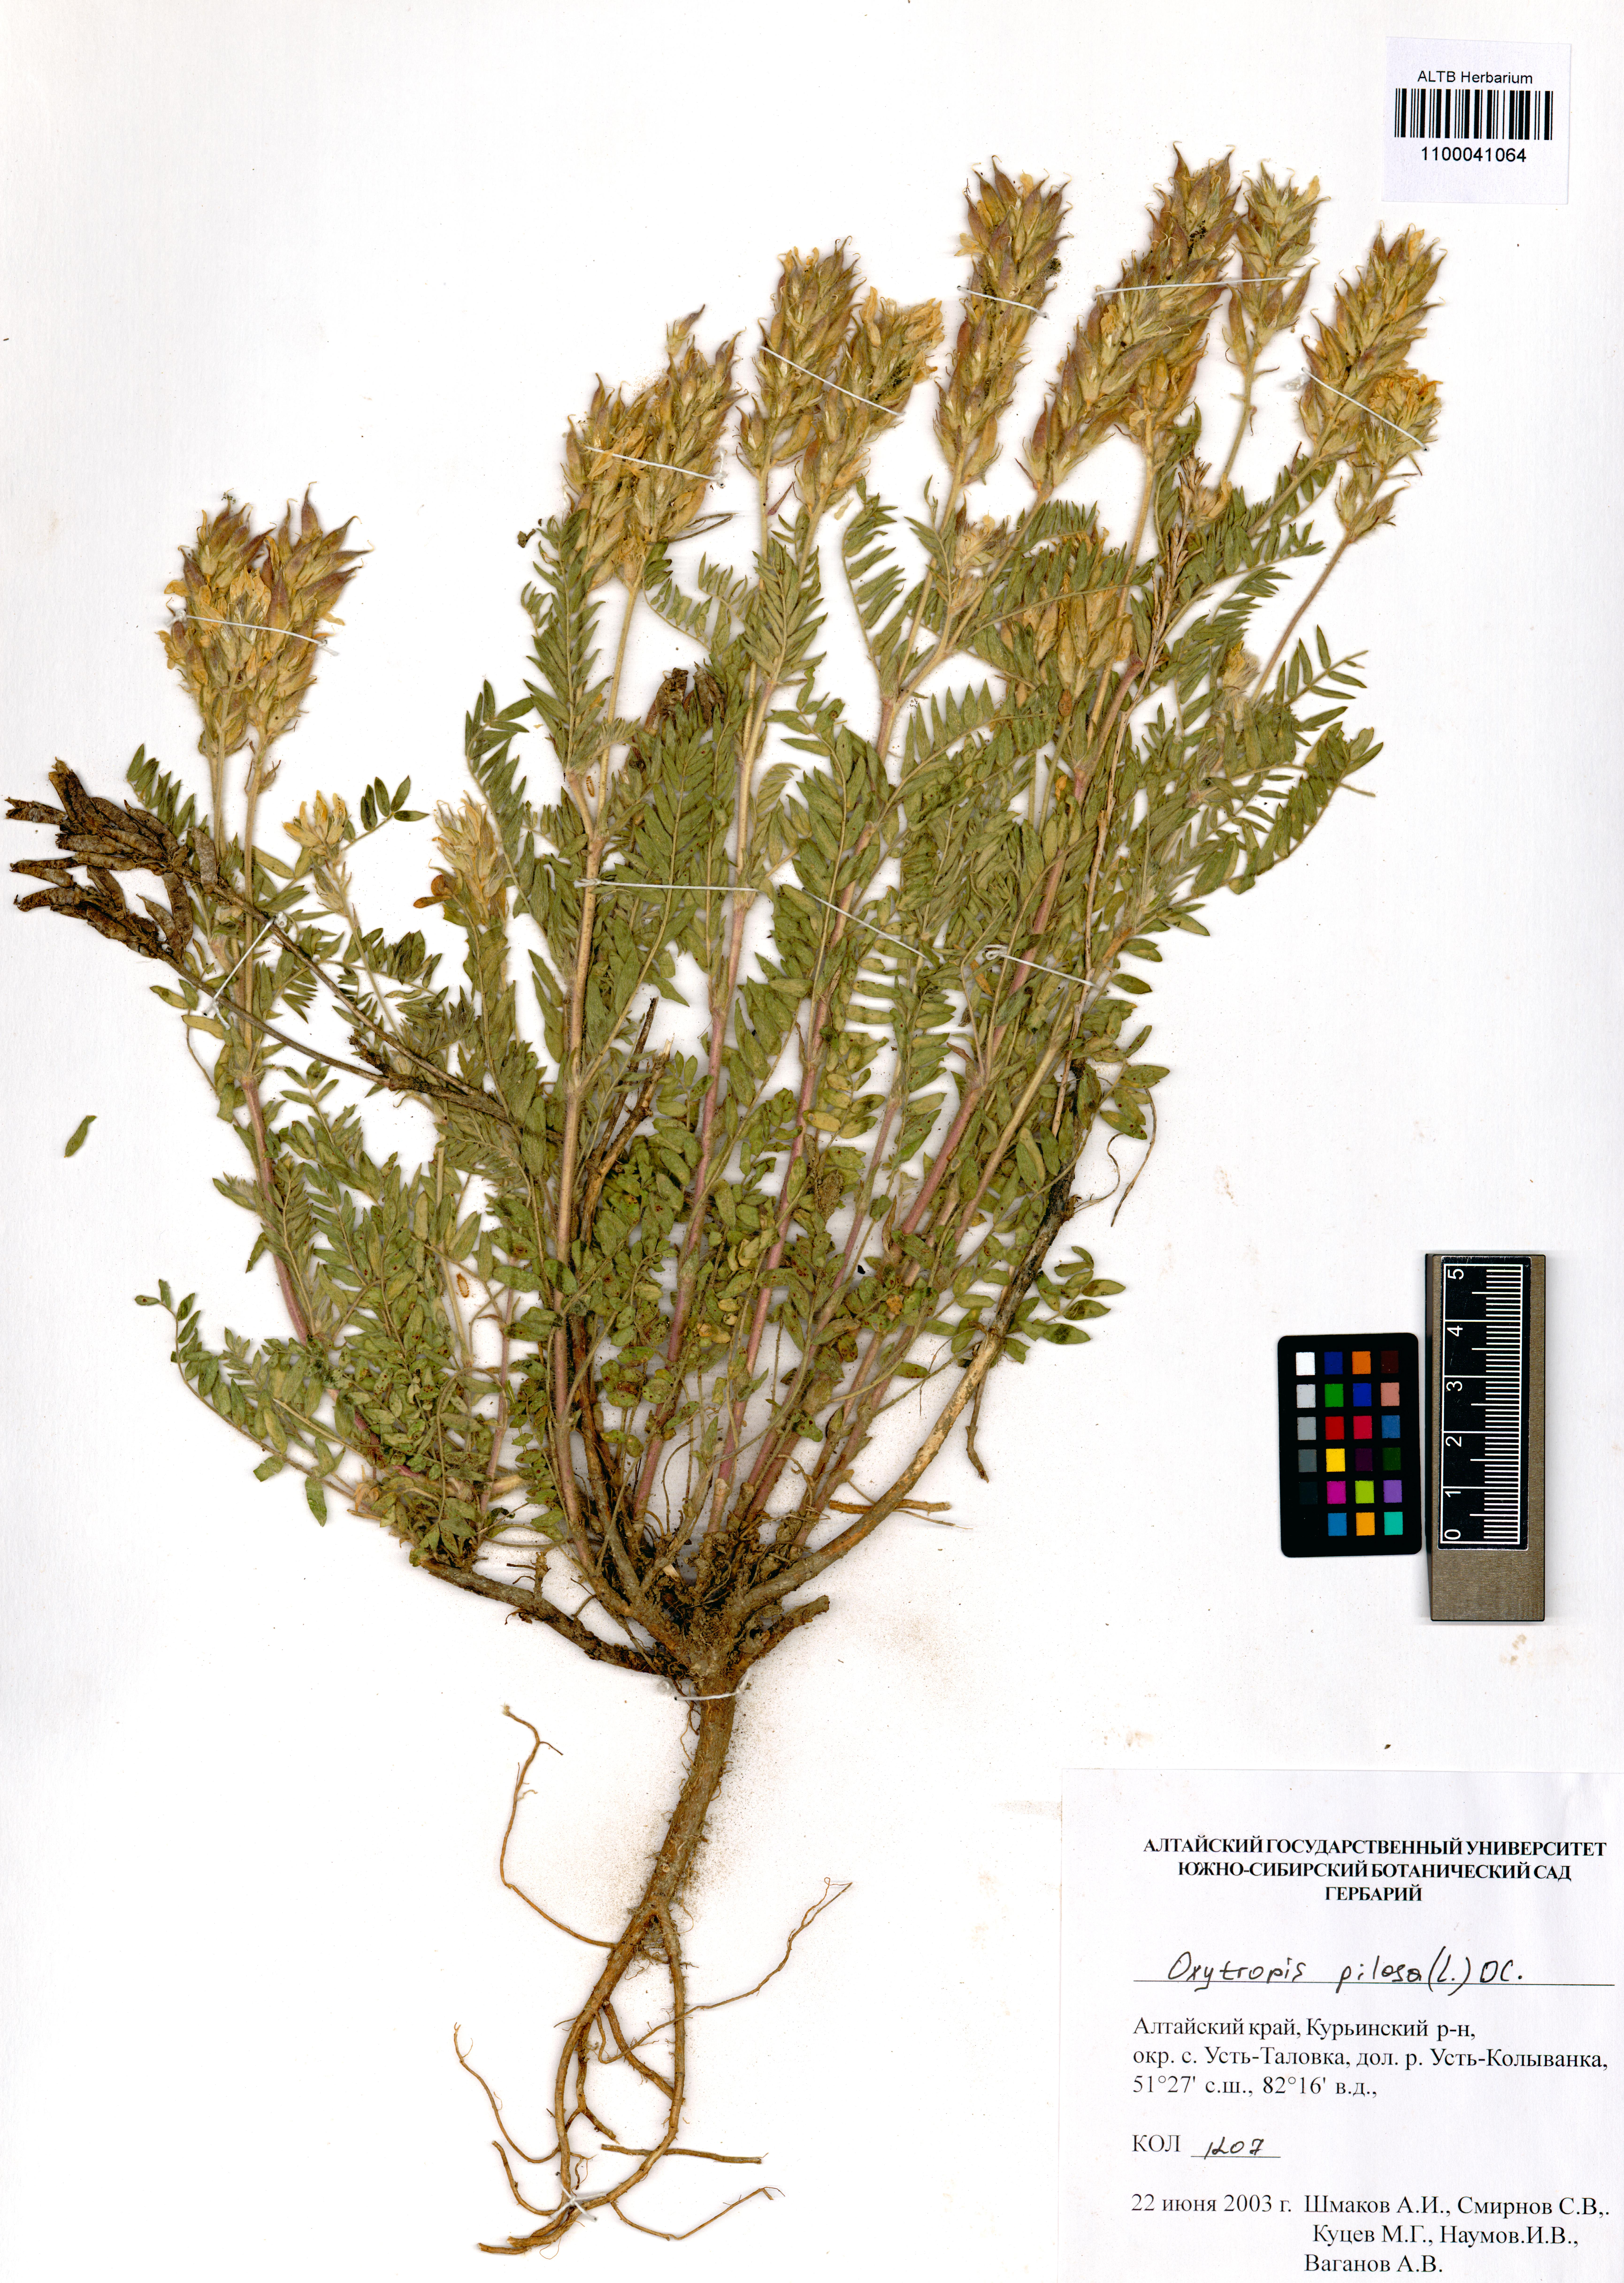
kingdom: Plantae
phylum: Tracheophyta
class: Magnoliopsida
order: Fabales
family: Fabaceae
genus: Oxytropis
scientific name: Oxytropis pilosa
